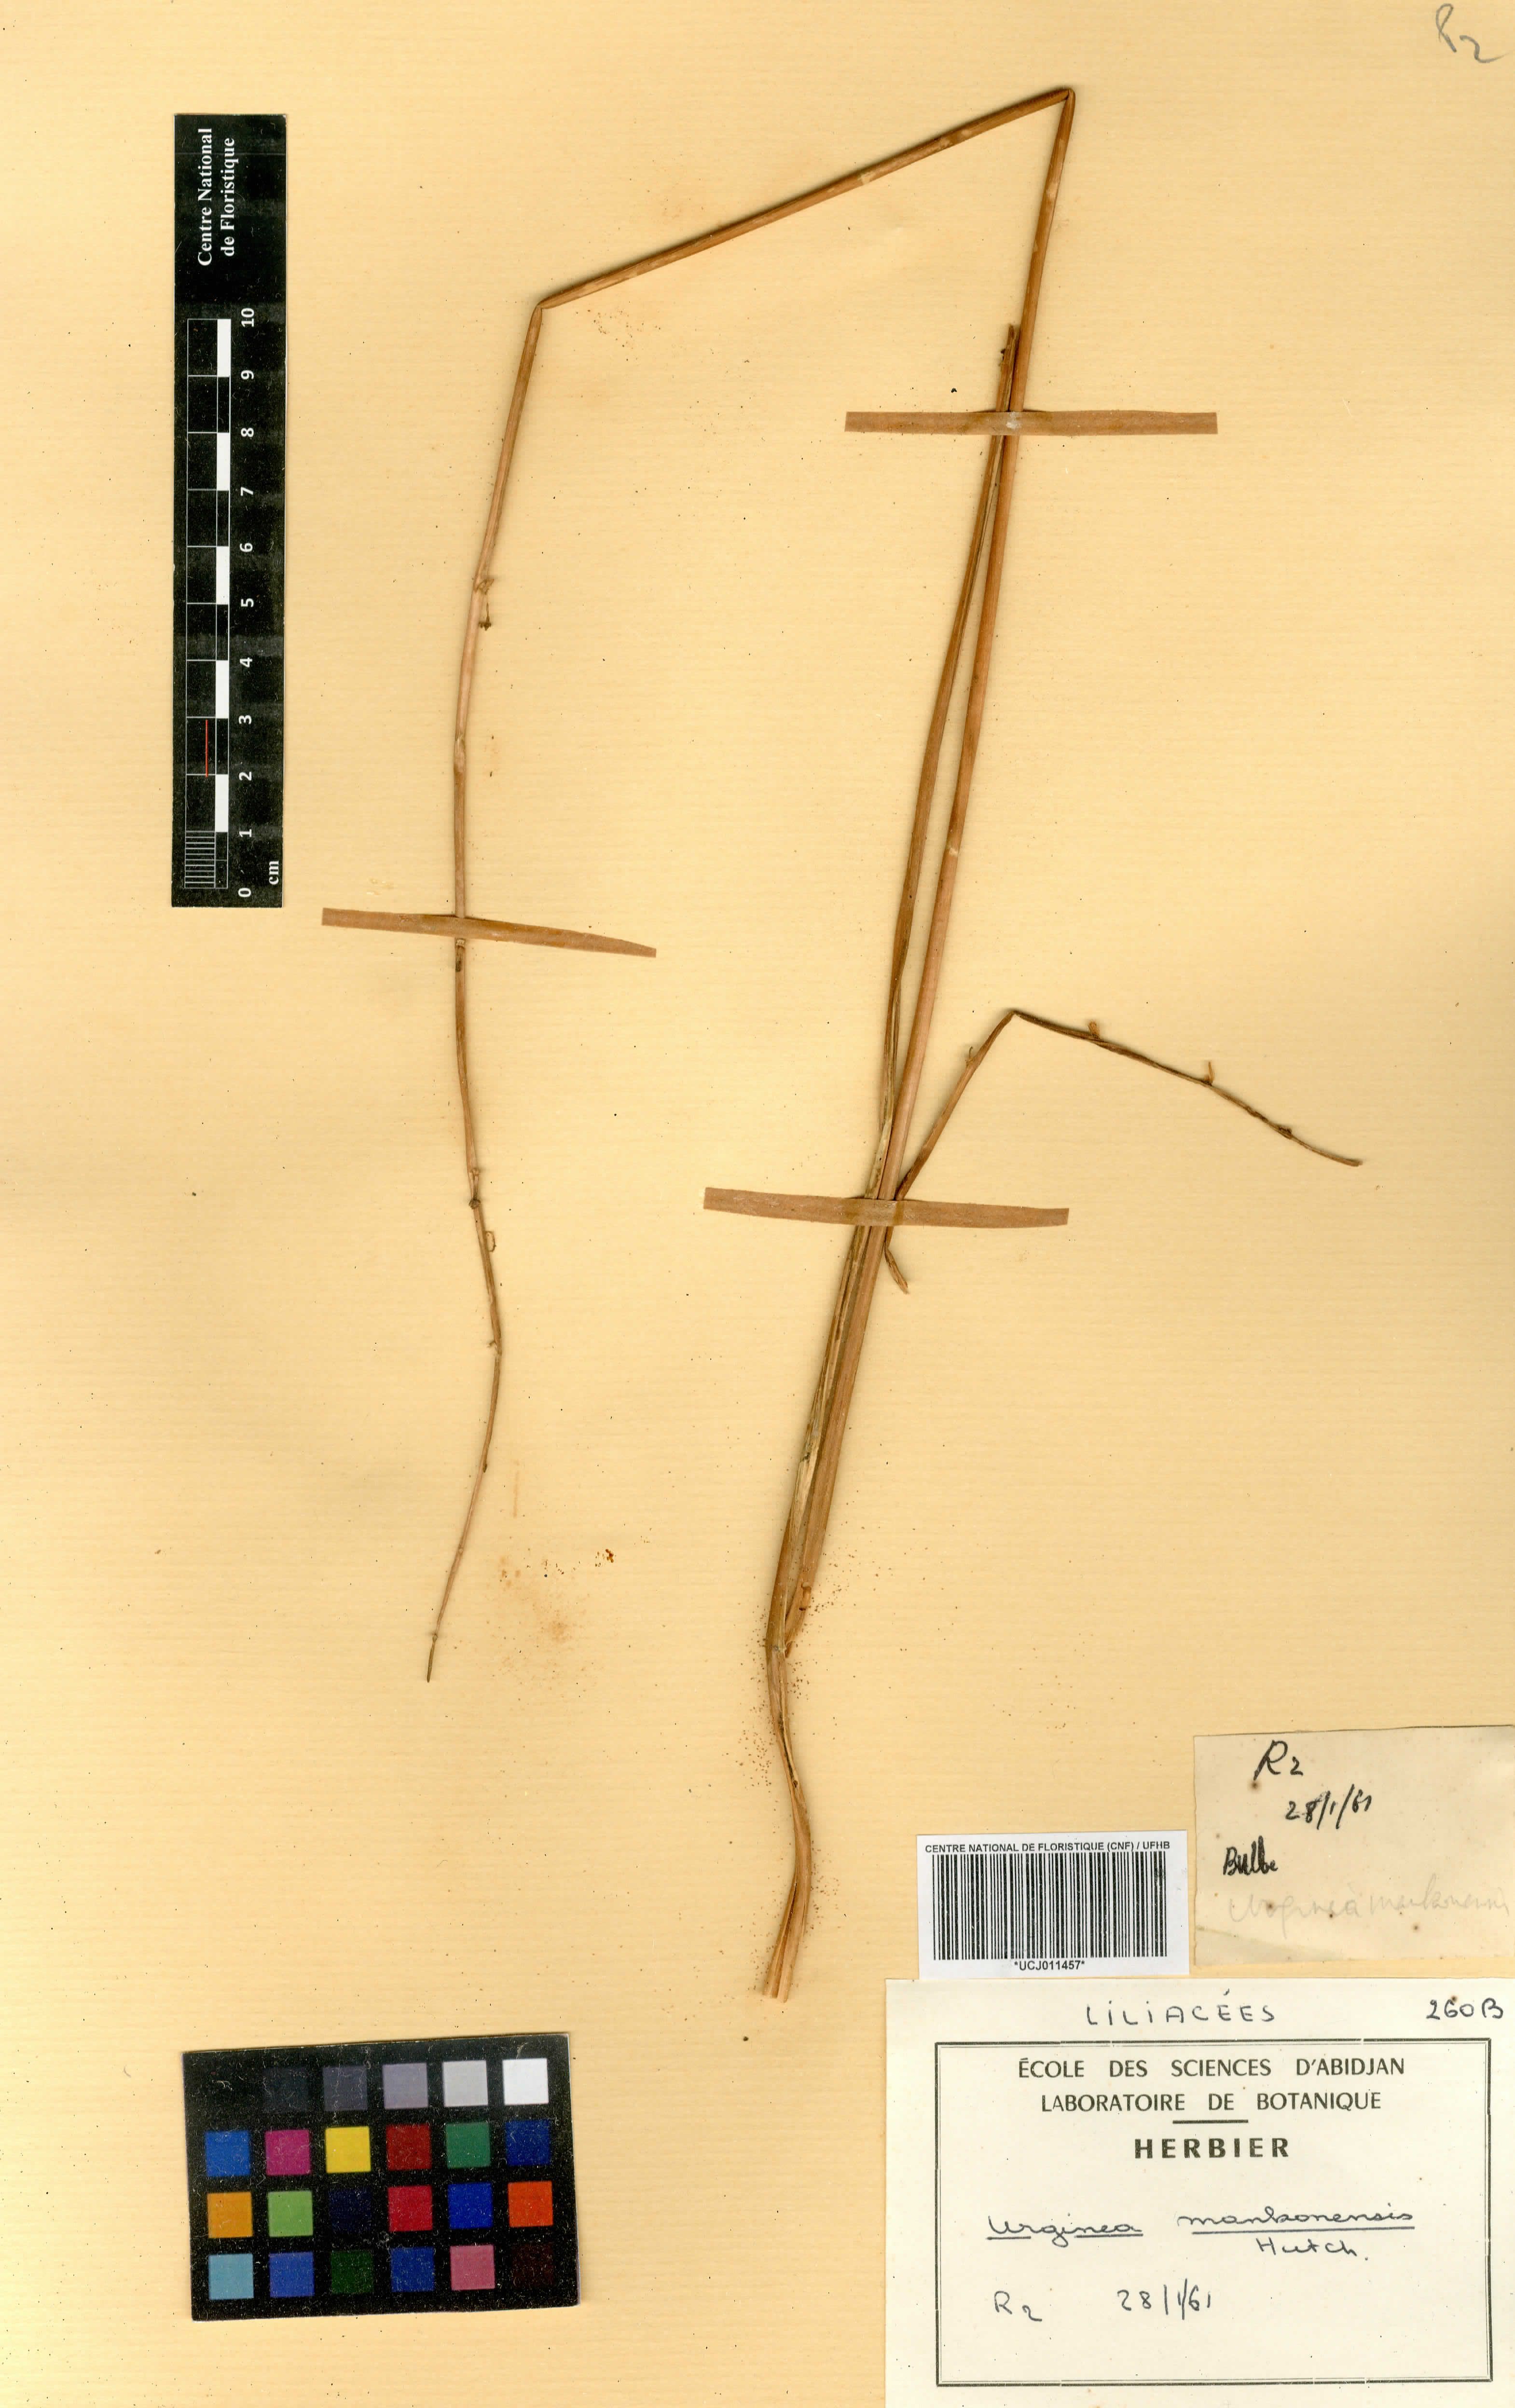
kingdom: Plantae
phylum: Tracheophyta
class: Liliopsida
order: Asparagales
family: Asparagaceae
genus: Albuca
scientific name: Albuca sudanica
